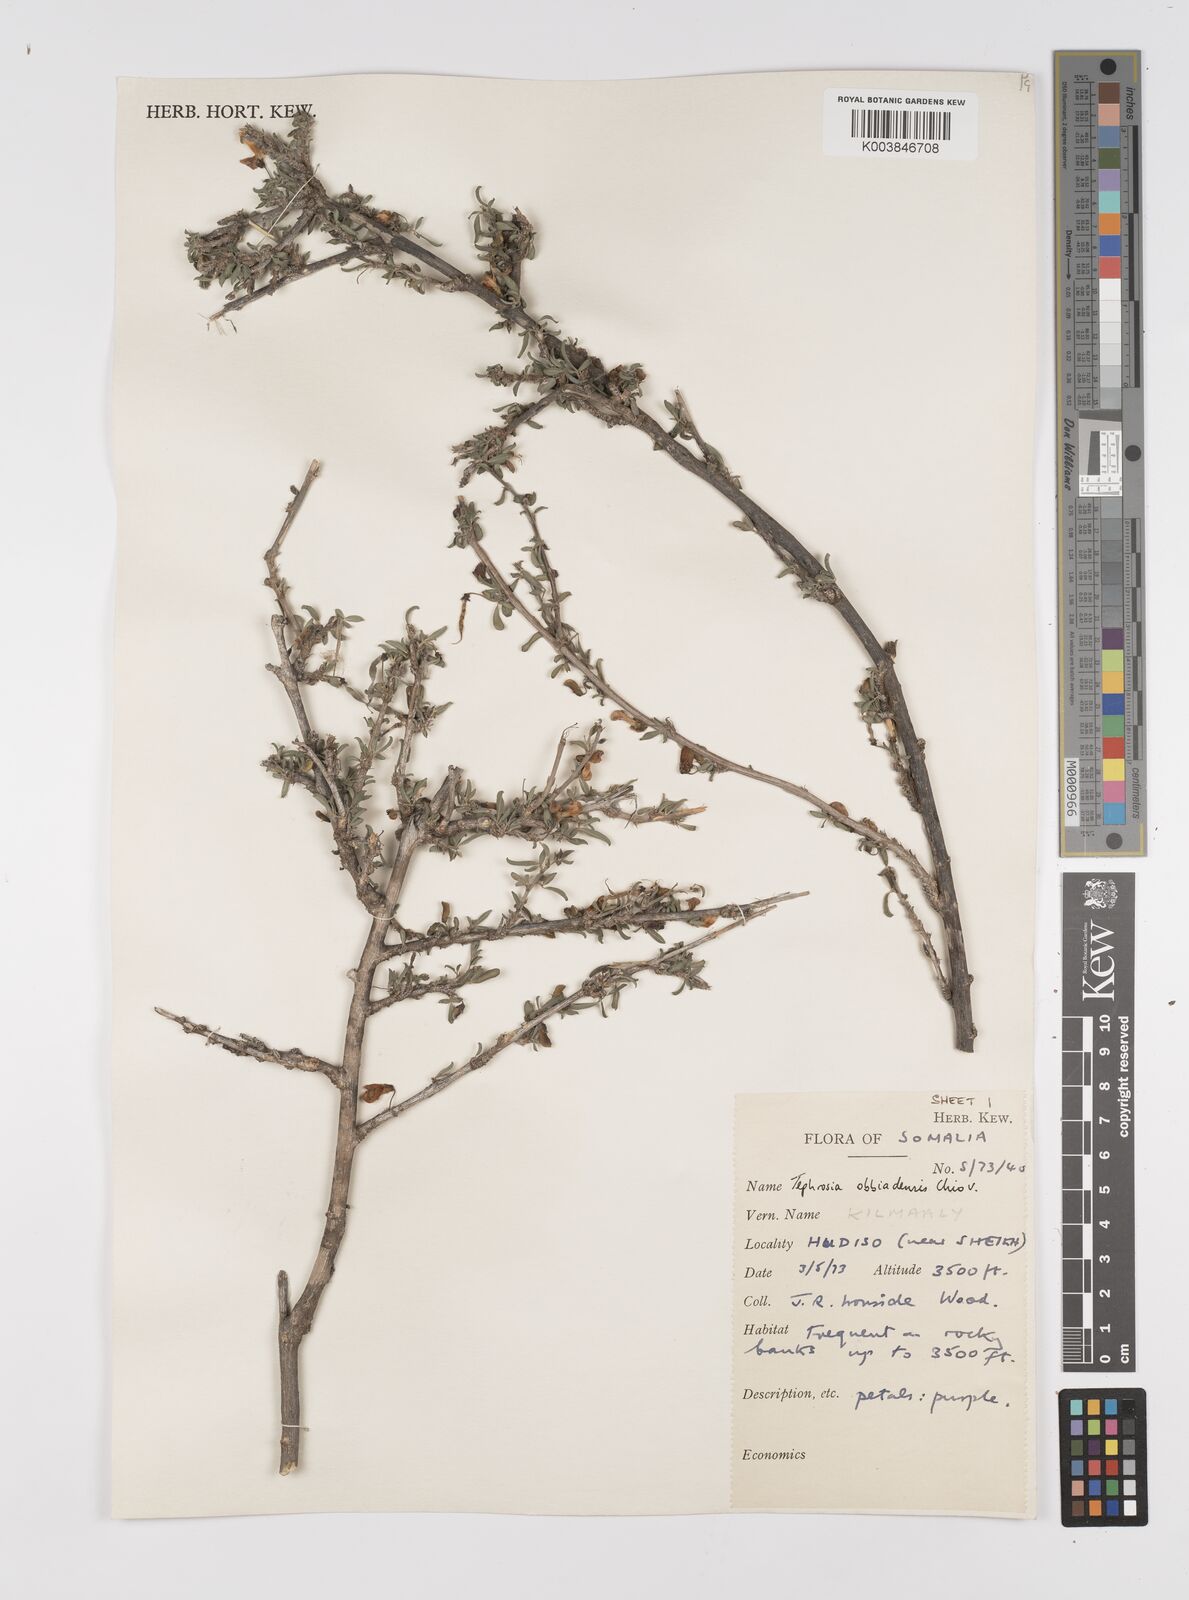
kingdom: Plantae
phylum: Tracheophyta
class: Magnoliopsida
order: Fabales
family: Fabaceae
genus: Tephrosia
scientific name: Tephrosia obbiadensis
